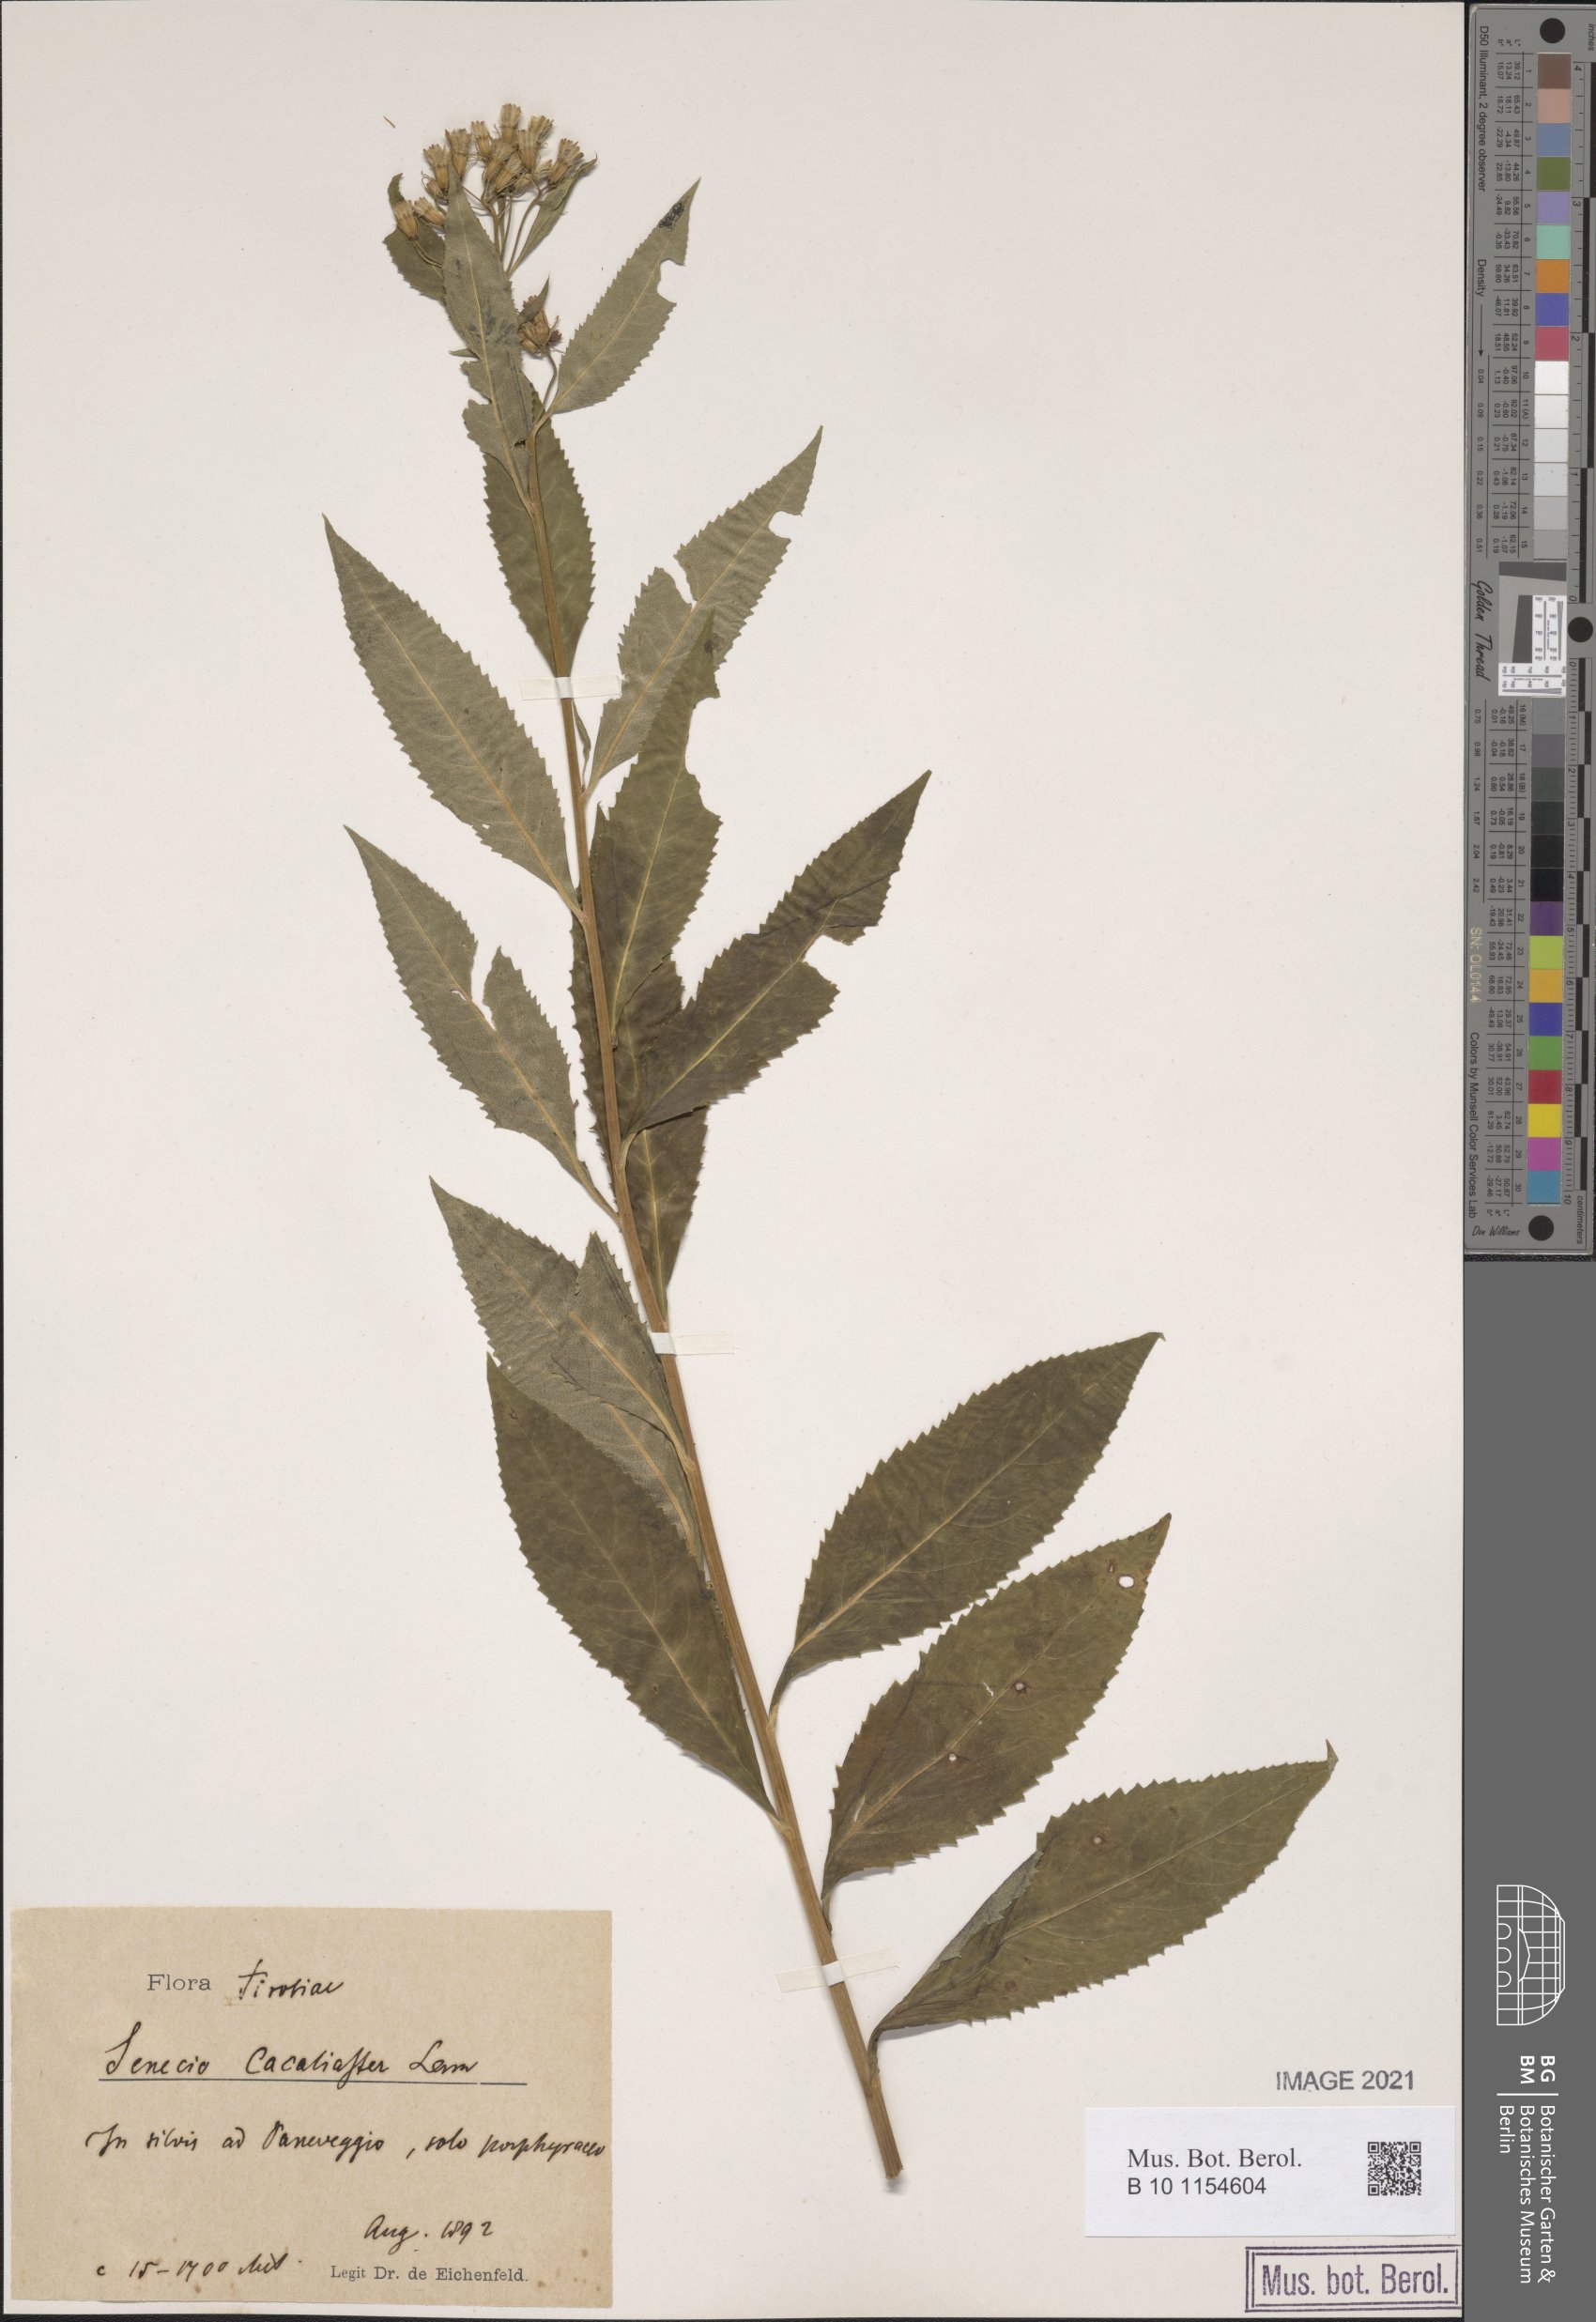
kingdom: Plantae
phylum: Tracheophyta
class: Magnoliopsida
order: Asterales
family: Asteraceae
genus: Senecio
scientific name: Senecio cacaliaster
